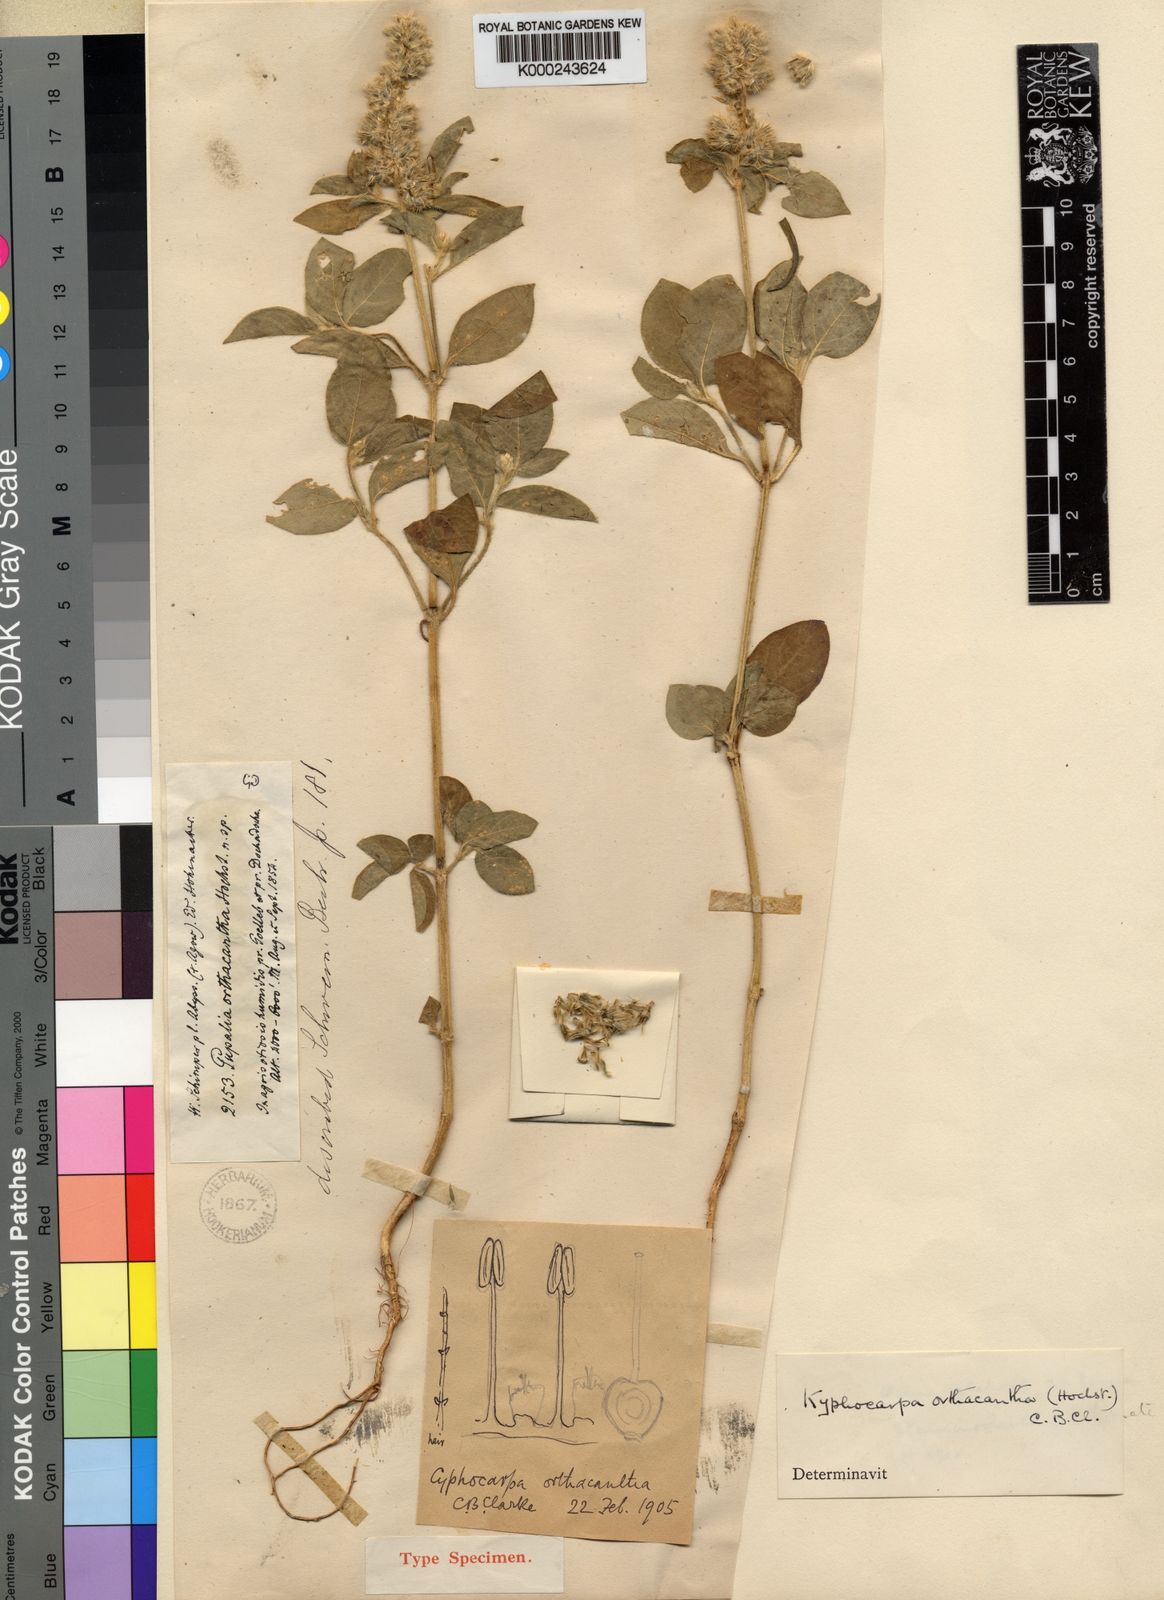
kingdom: Plantae
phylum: Tracheophyta
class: Magnoliopsida
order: Caryophyllales
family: Amaranthaceae
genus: Kyphocarpa
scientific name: Kyphocarpa
